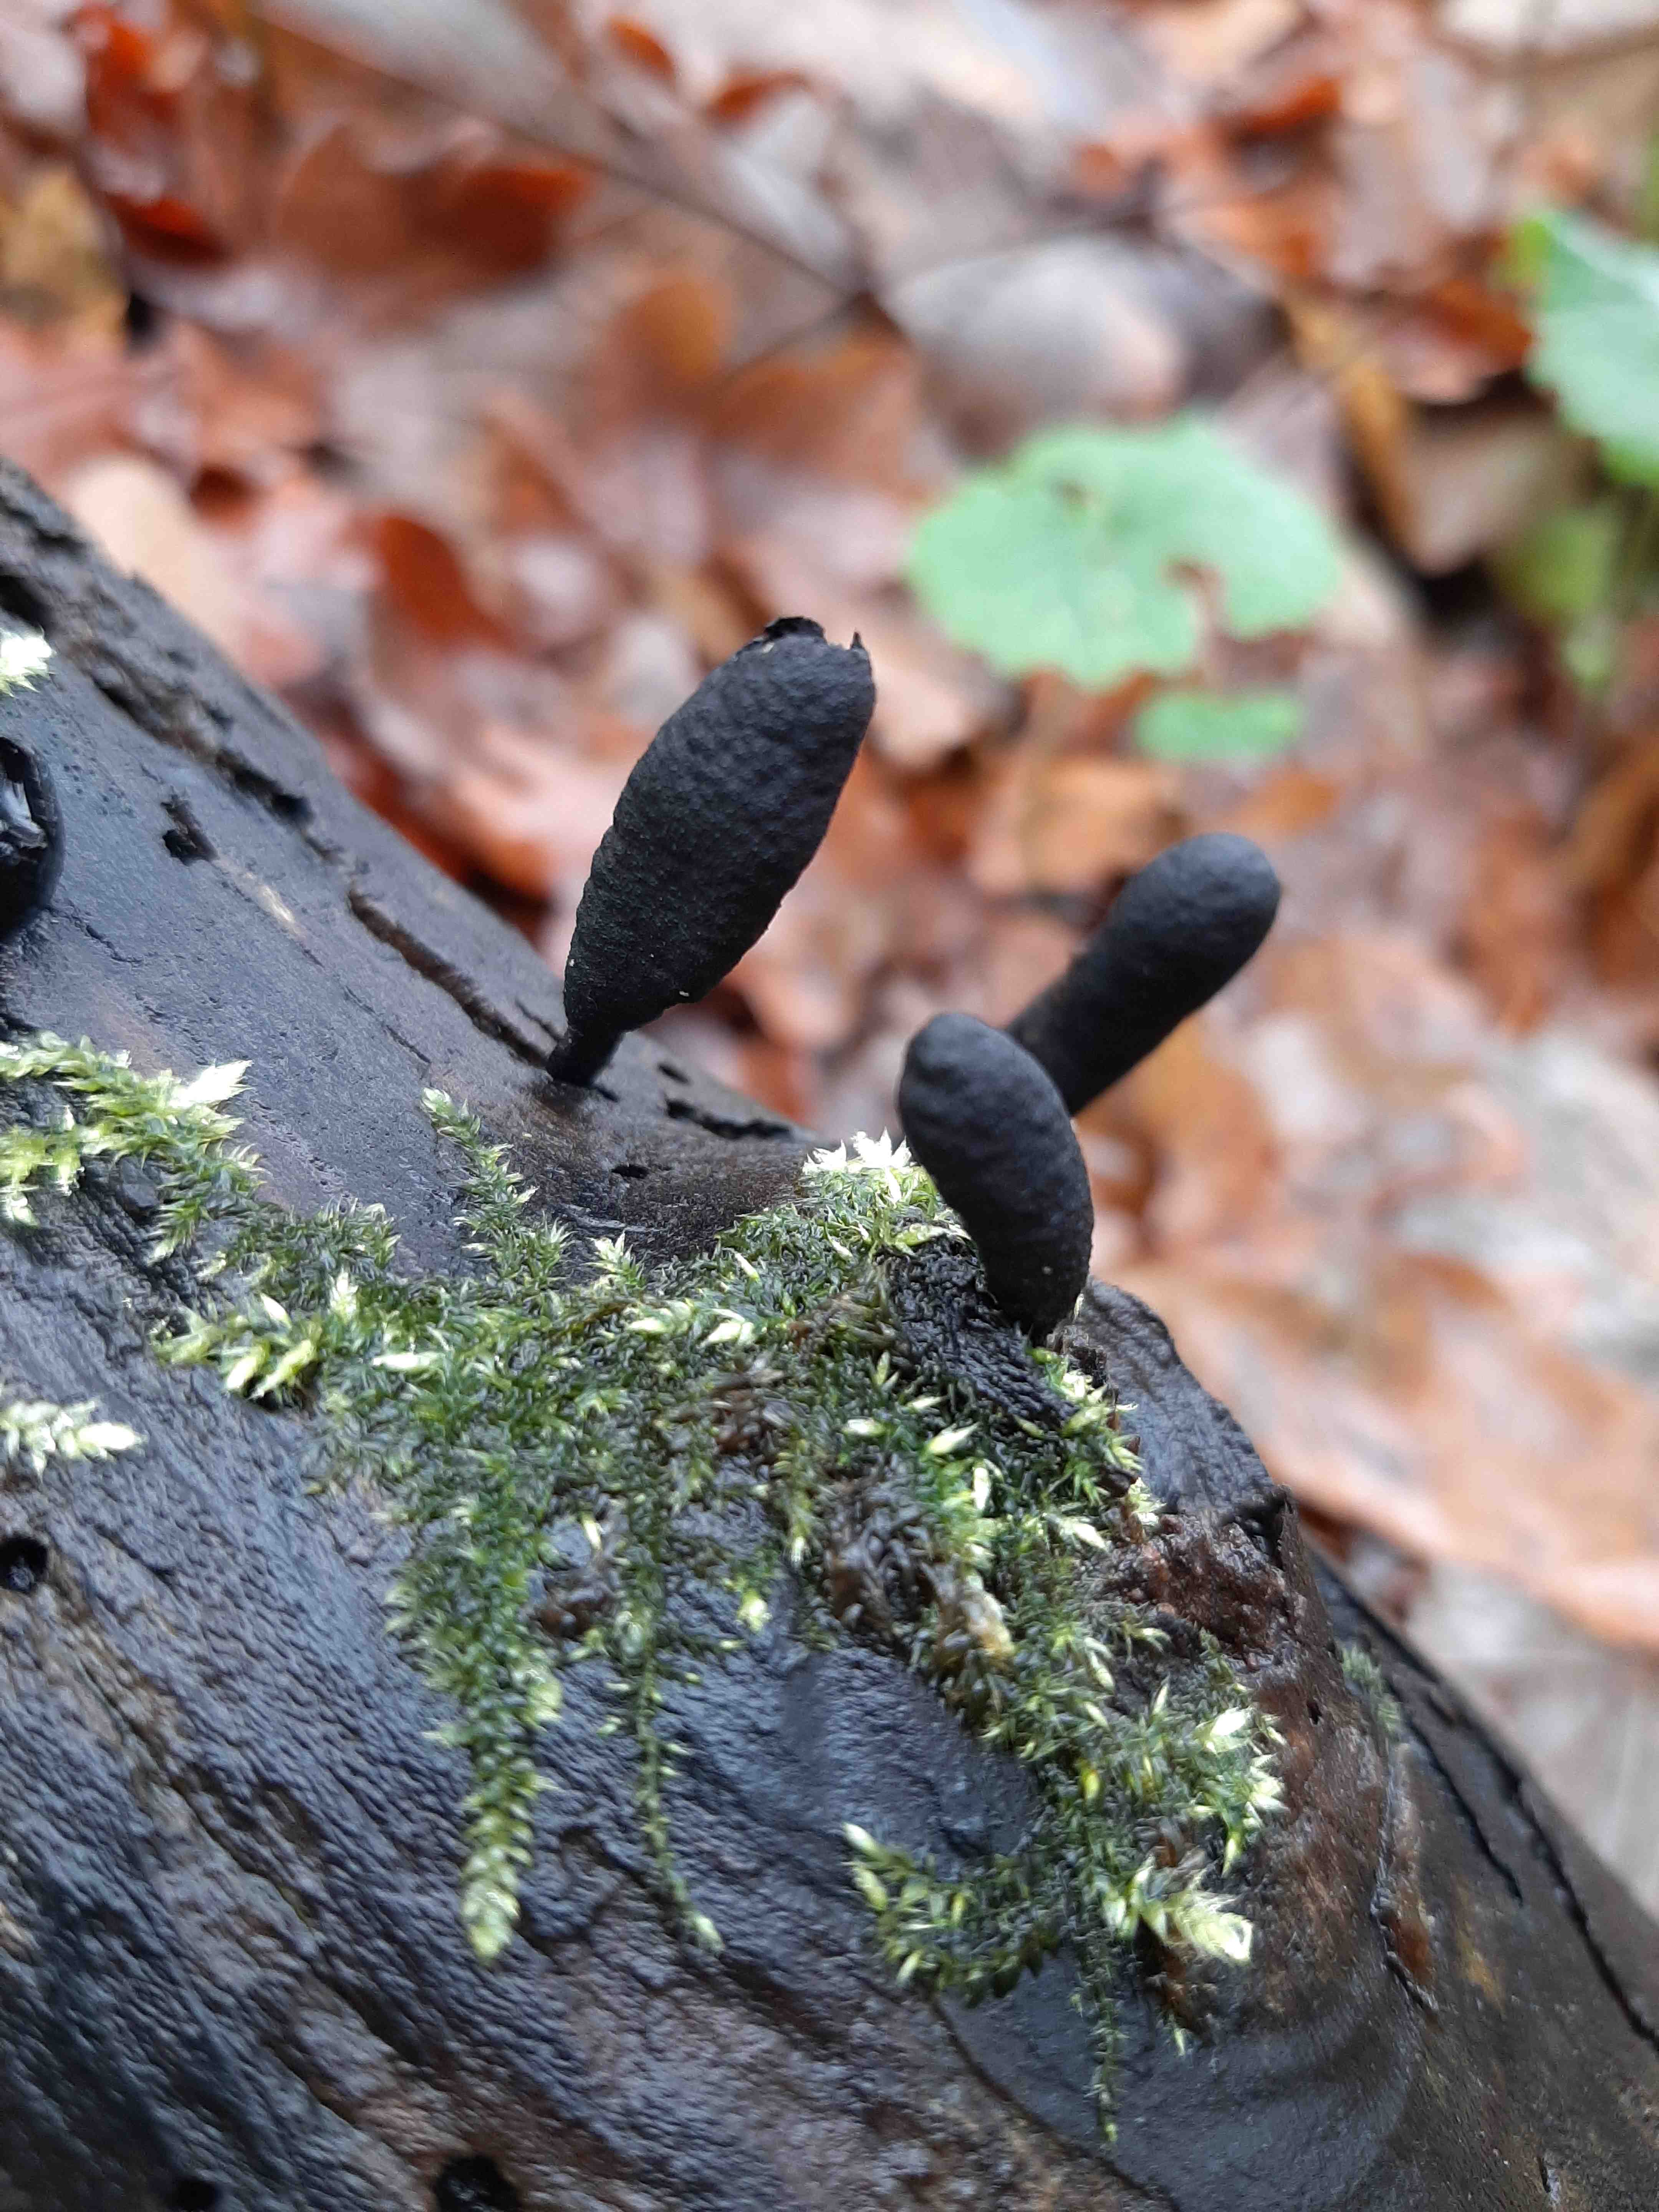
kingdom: Fungi
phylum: Ascomycota
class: Sordariomycetes
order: Xylariales
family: Xylariaceae
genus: Xylaria
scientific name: Xylaria polymorpha
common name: kølle-stødsvamp
